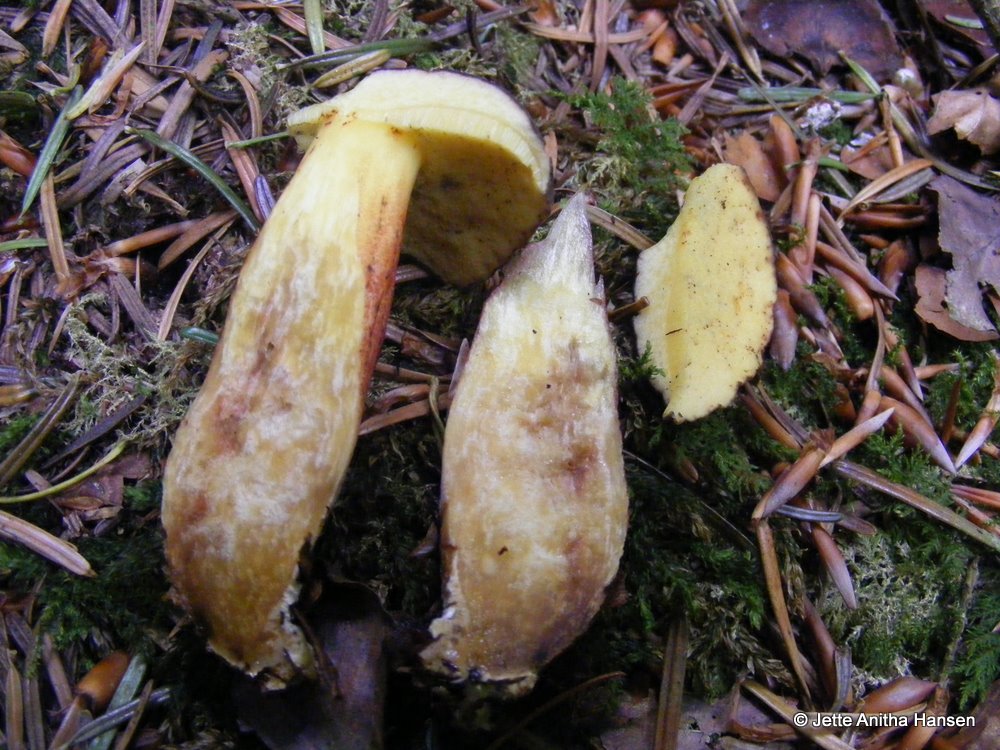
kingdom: Fungi
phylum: Basidiomycota
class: Agaricomycetes
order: Boletales
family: Boletaceae
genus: Xerocomellus
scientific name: Xerocomellus pruinatus
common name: dugget rørhat
